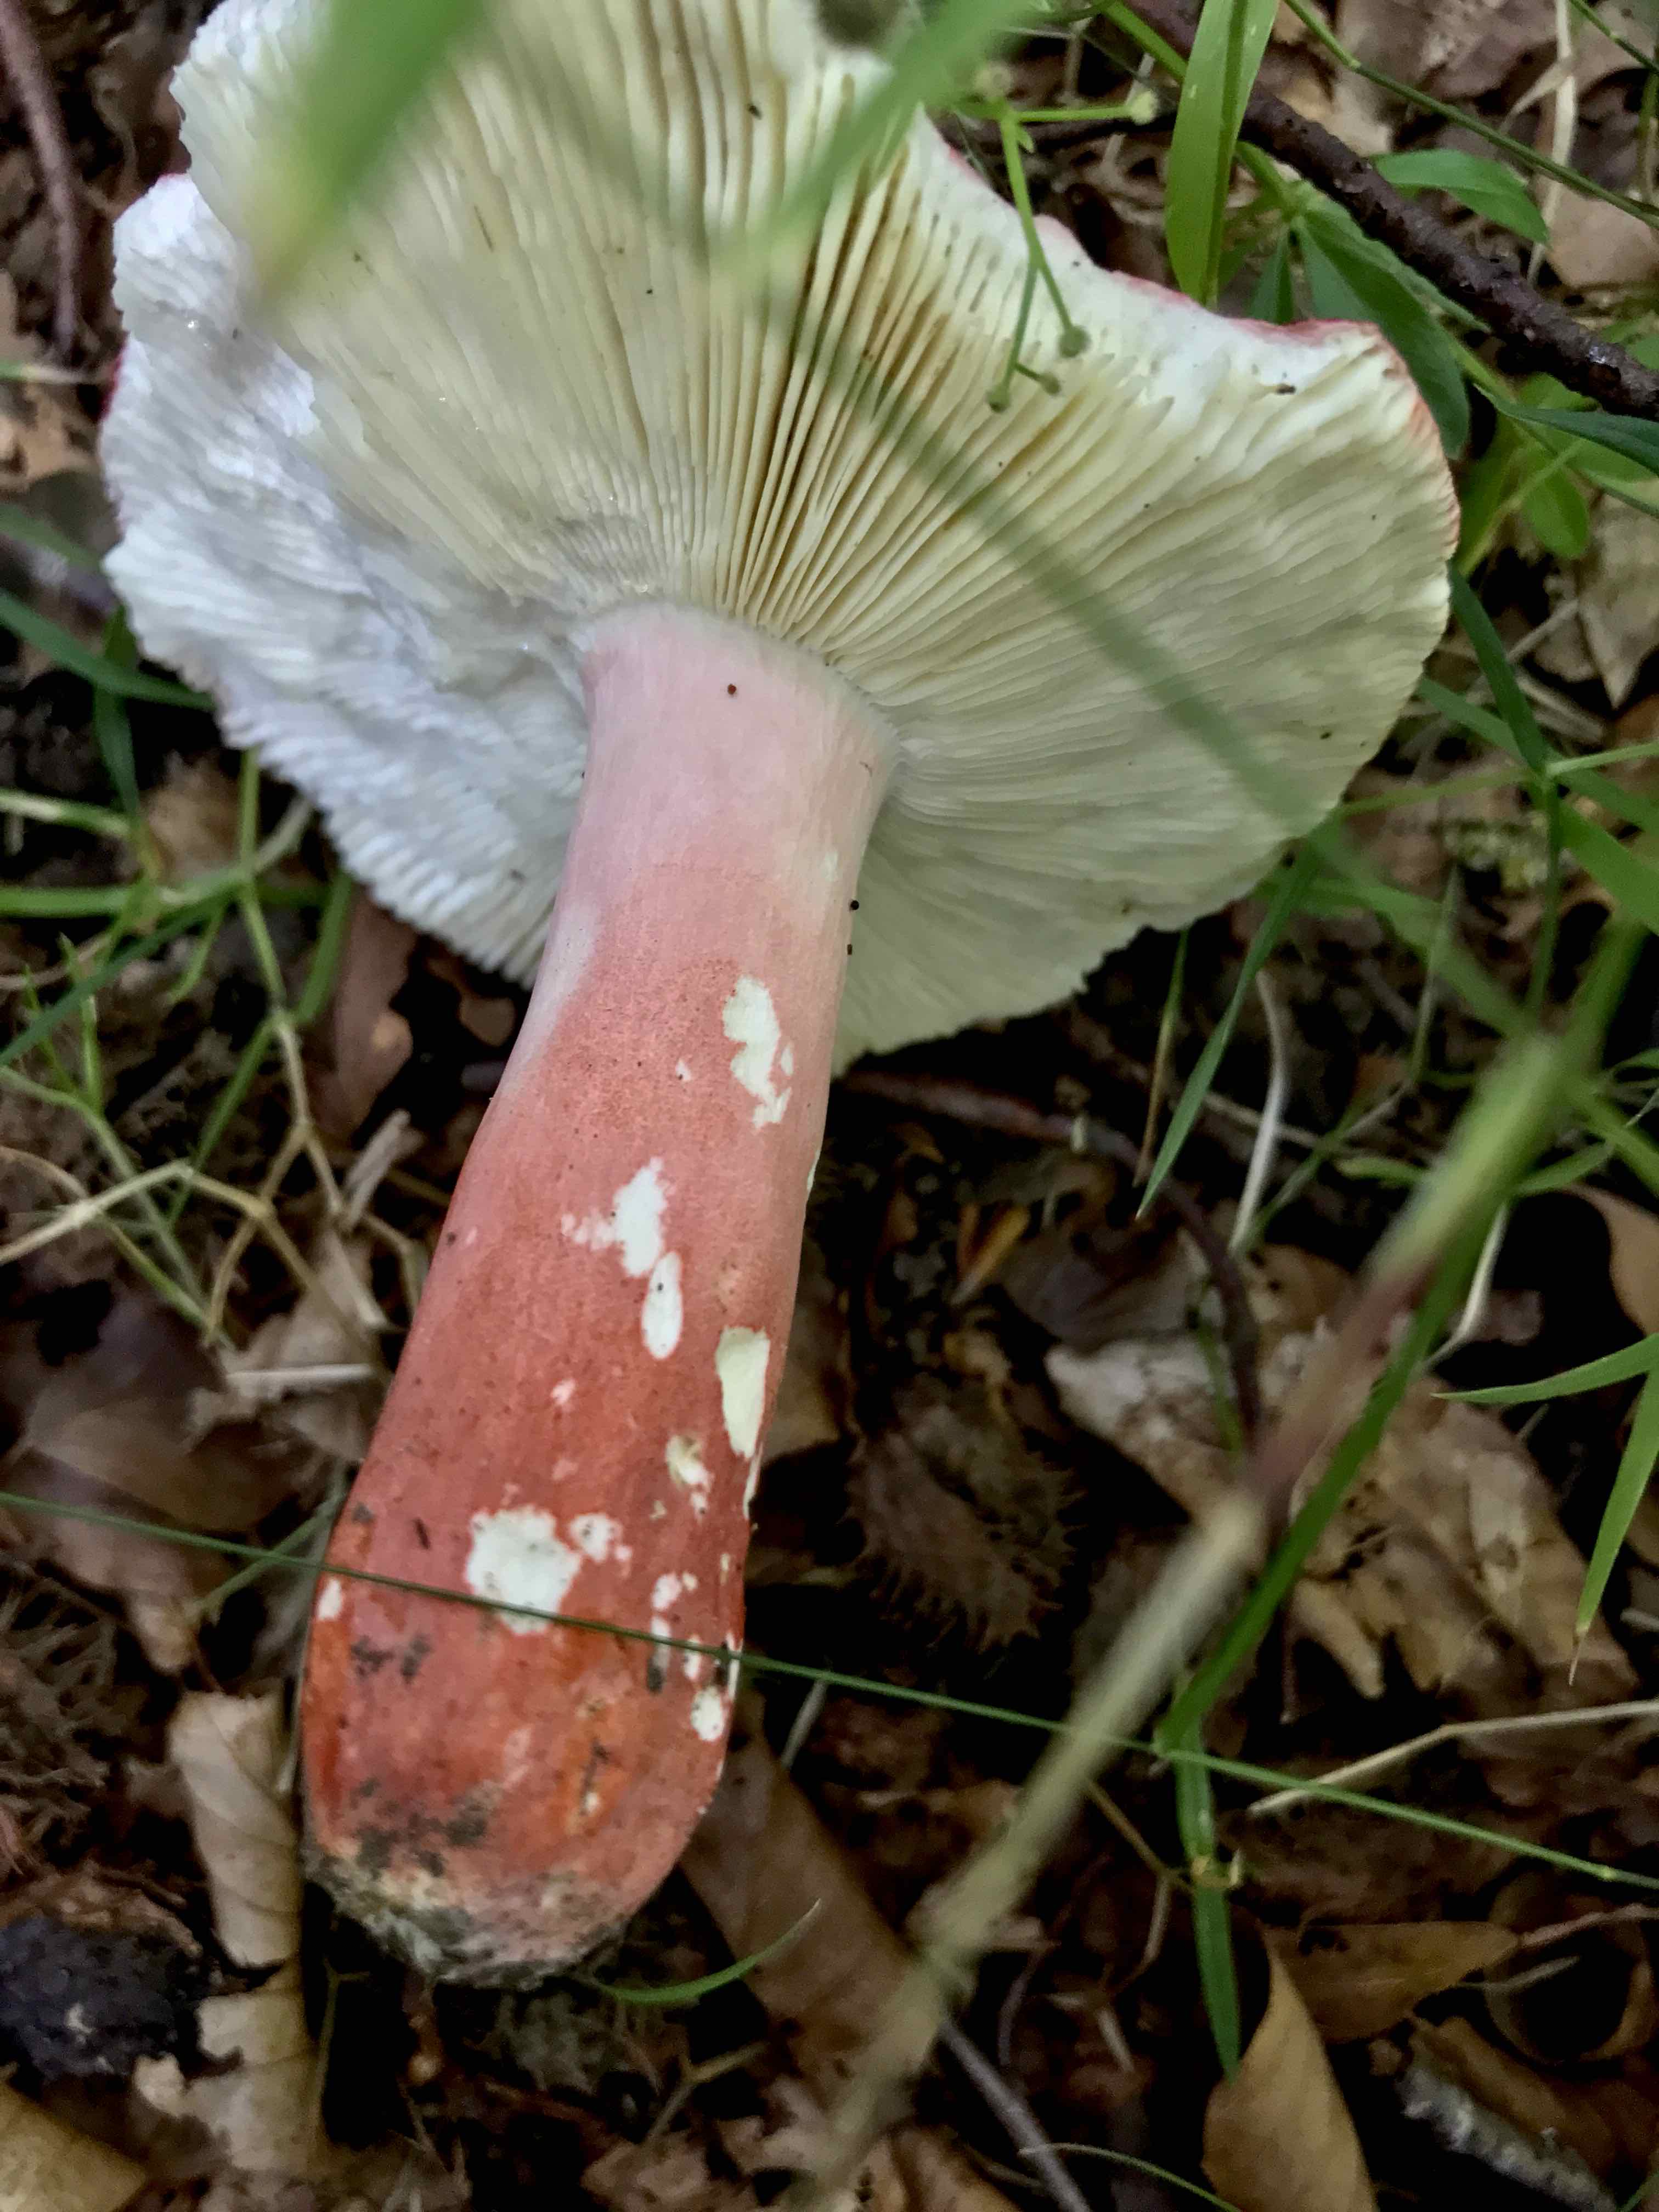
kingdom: Fungi
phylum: Basidiomycota
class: Agaricomycetes
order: Russulales
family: Russulaceae
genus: Russula
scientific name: Russula rosea
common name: fastkødet skørhat
